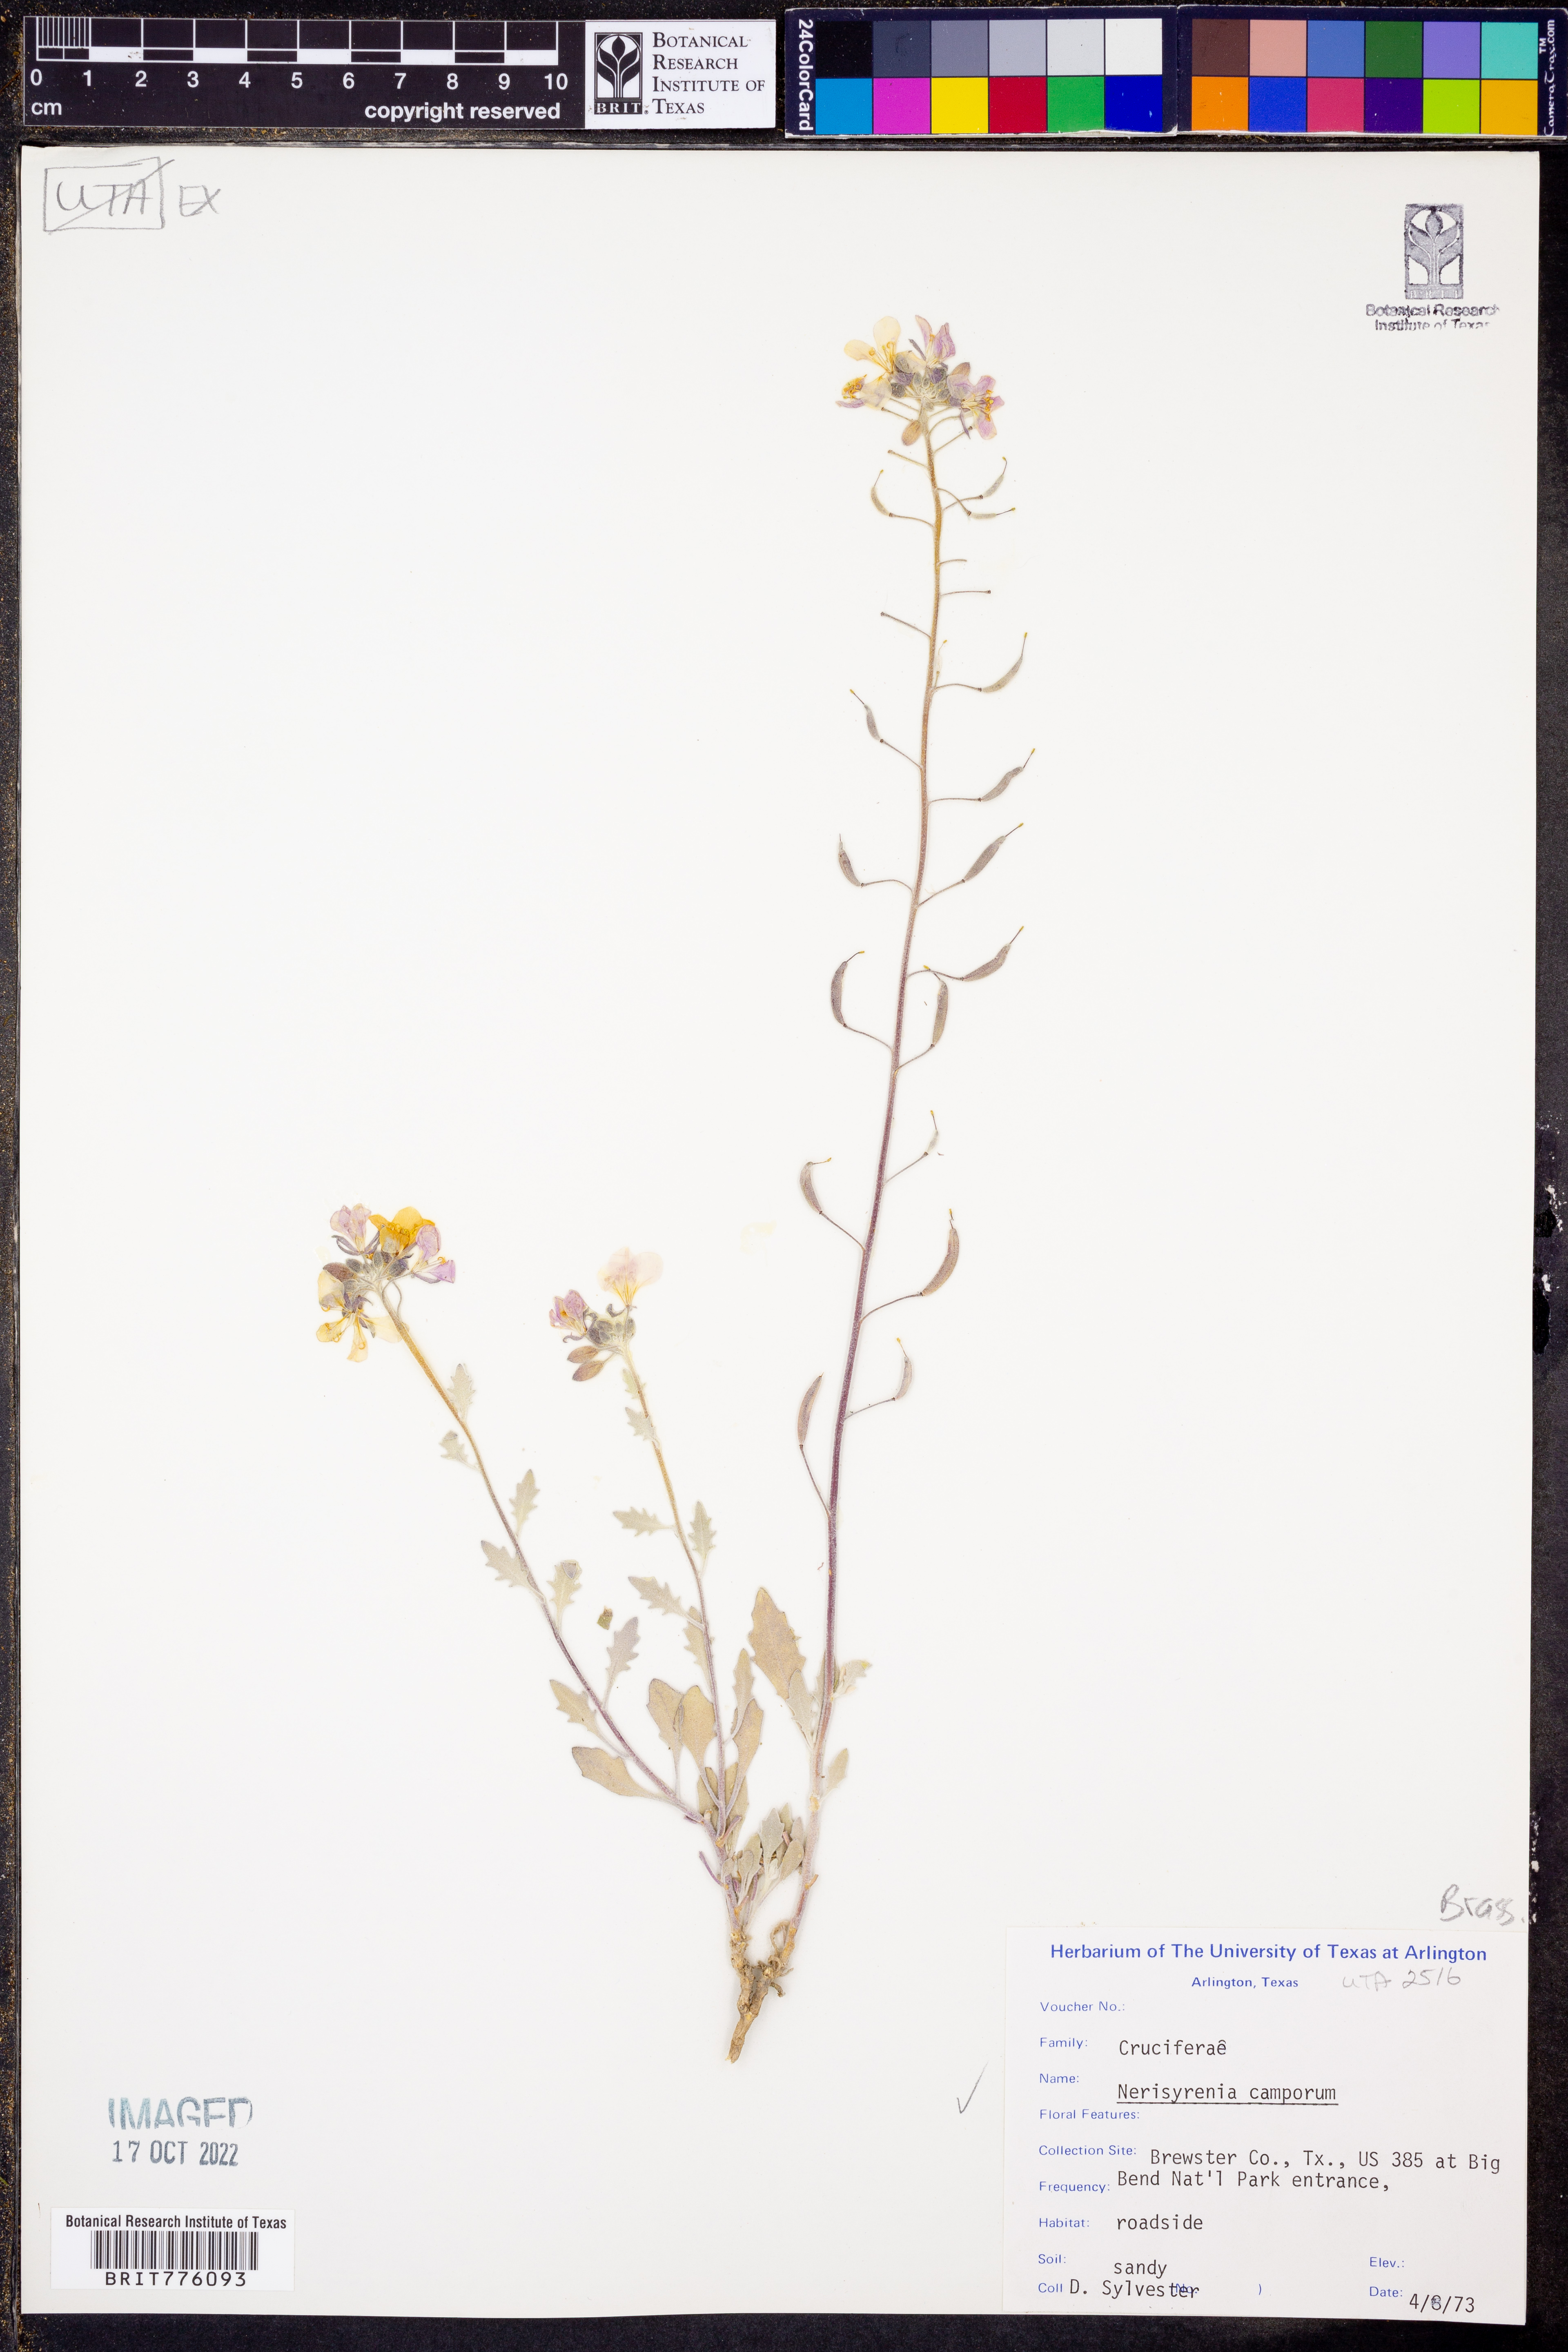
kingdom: Plantae
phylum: Tracheophyta
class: Magnoliopsida
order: Brassicales
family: Brassicaceae
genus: Nerisyrenia
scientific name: Nerisyrenia camporum
